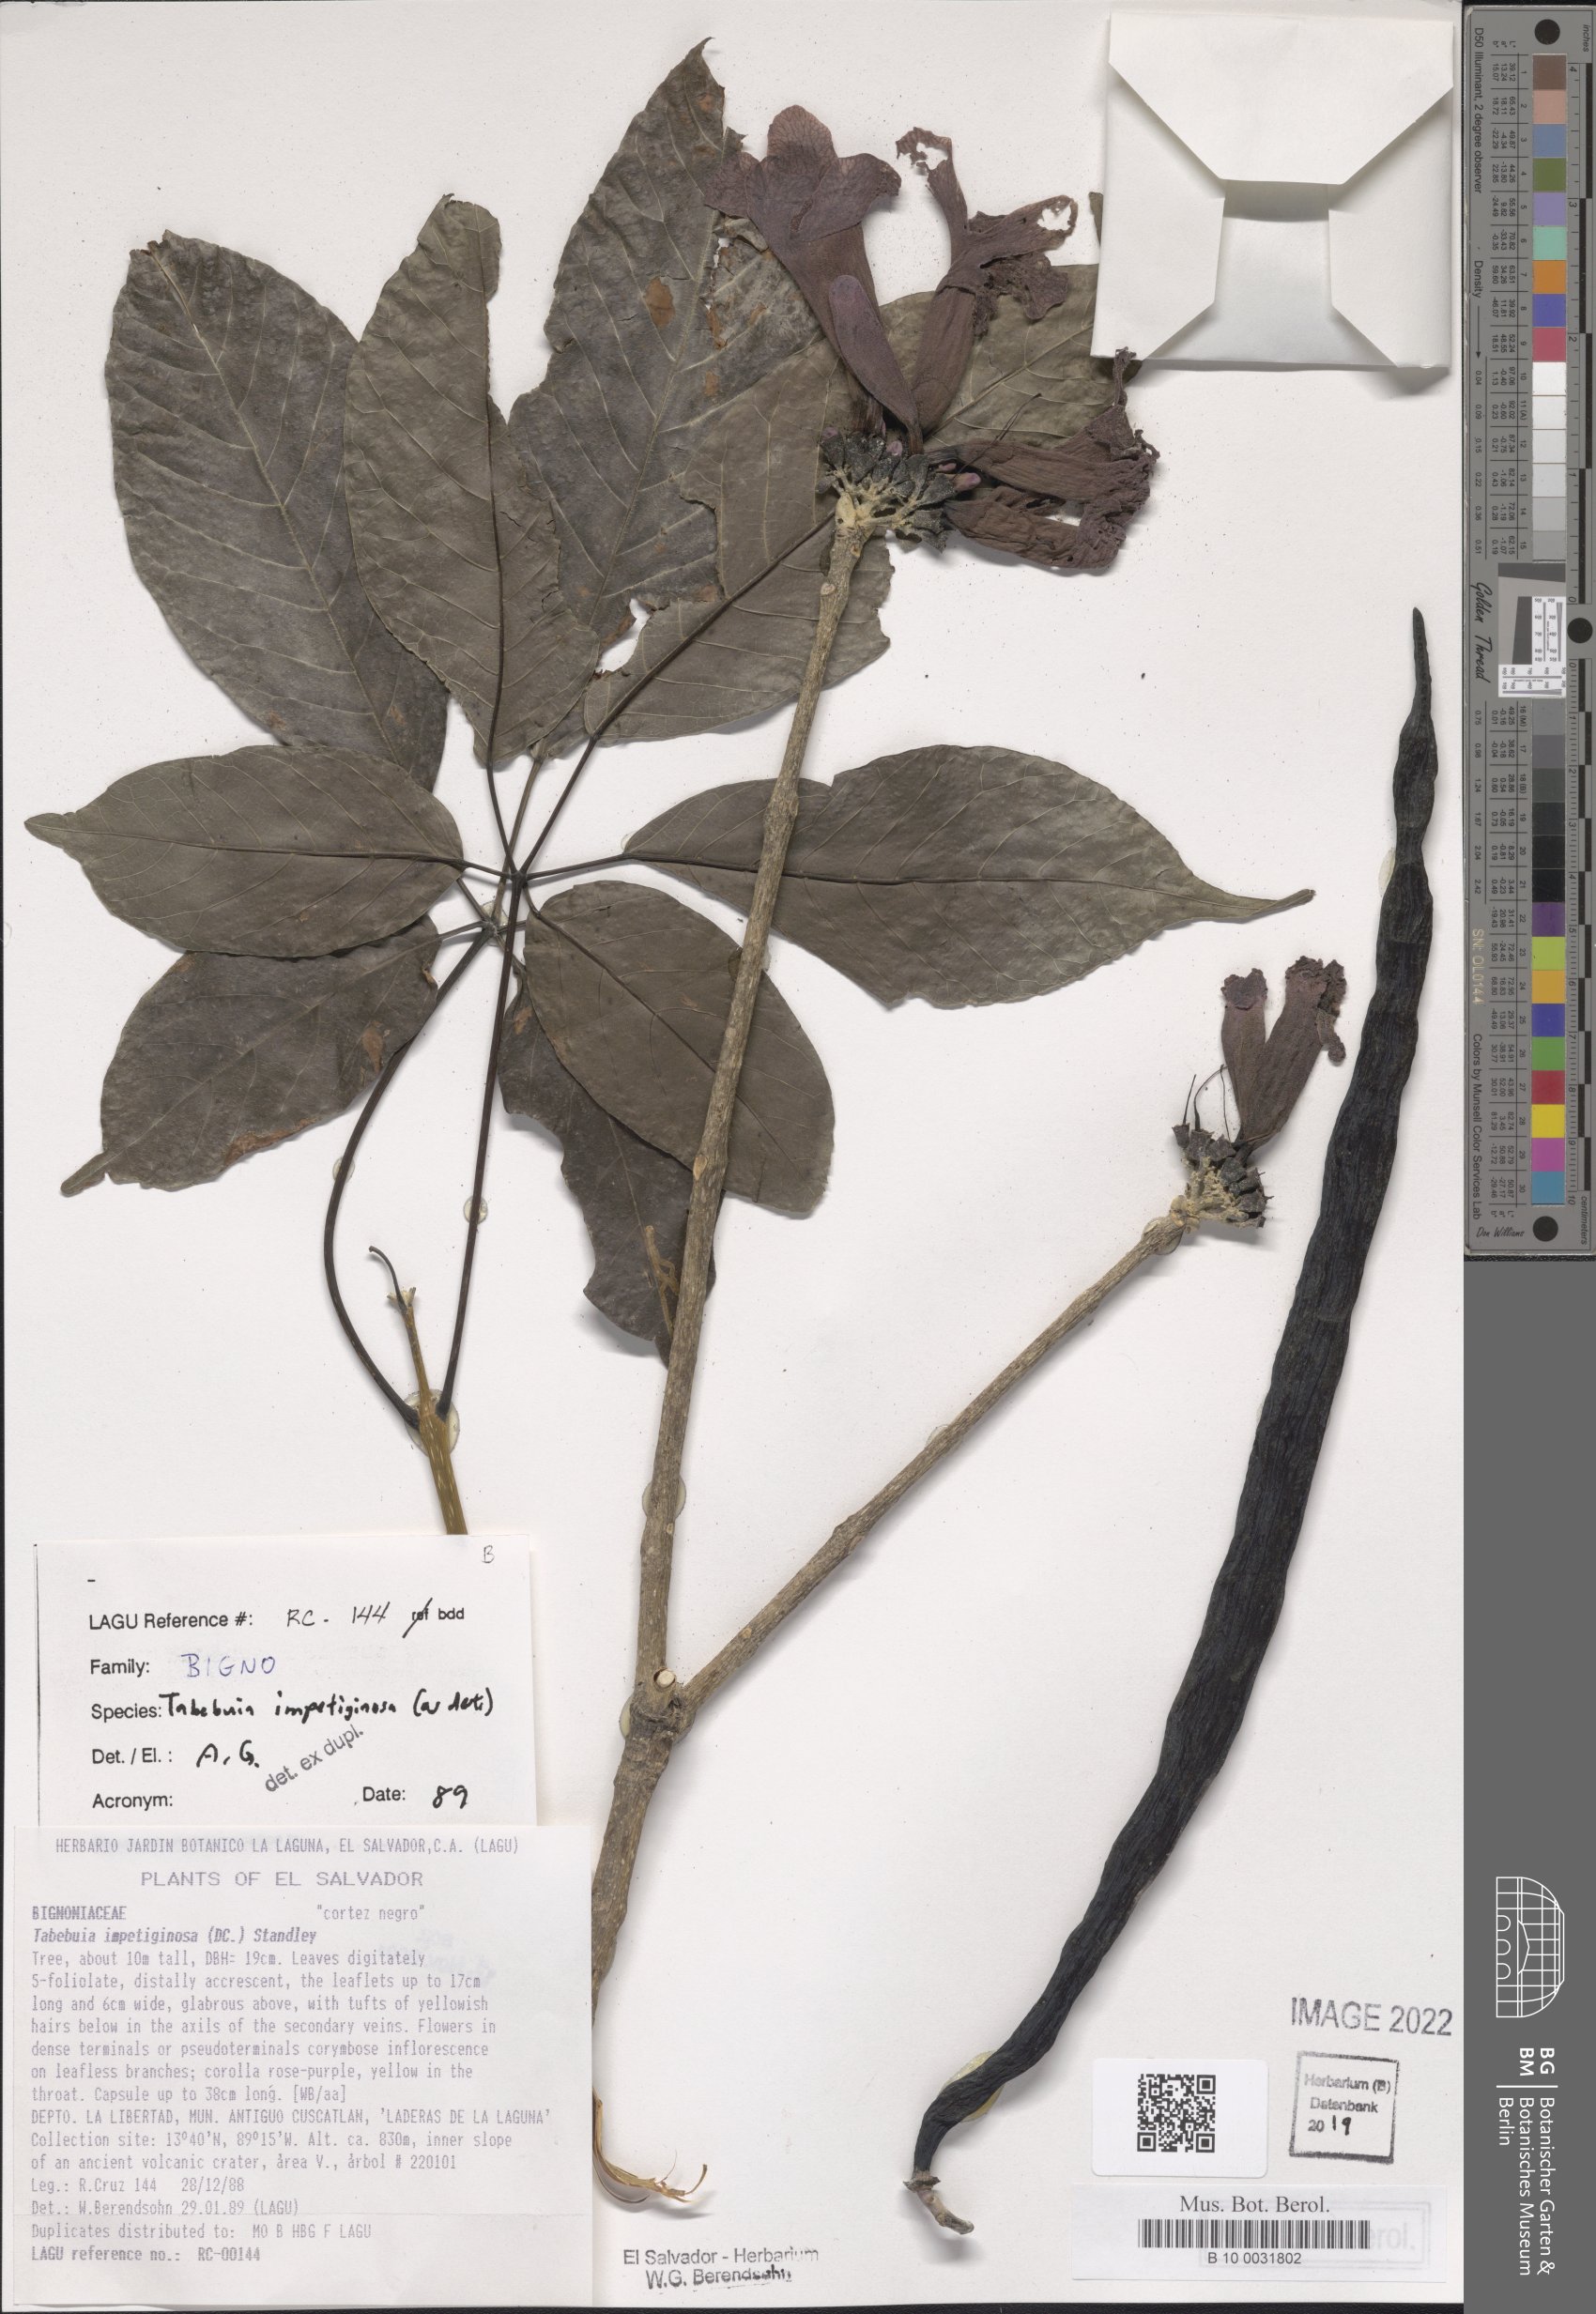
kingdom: Plantae
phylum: Tracheophyta
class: Magnoliopsida
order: Lamiales
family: Bignoniaceae
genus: Handroanthus
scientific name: Handroanthus impetiginosum
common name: Pink trumpet tree
